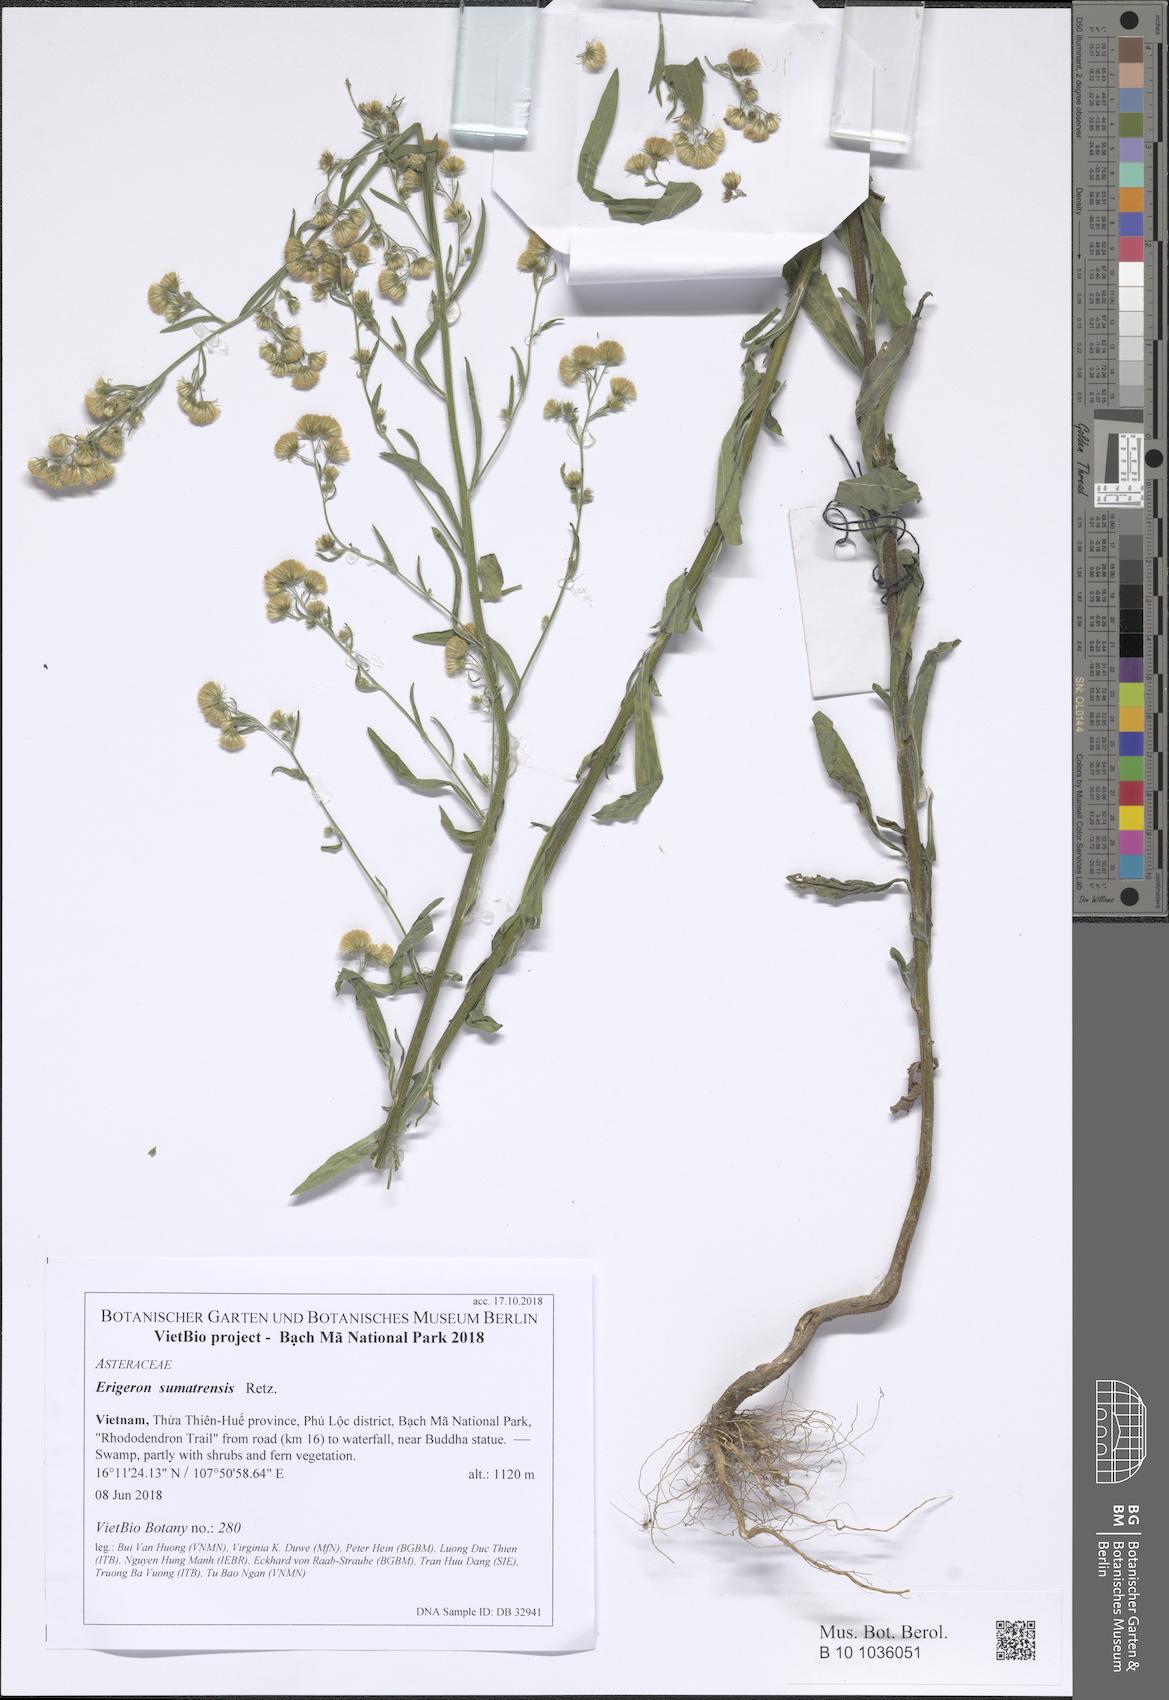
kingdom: Plantae
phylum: Tracheophyta
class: Magnoliopsida
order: Asterales
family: Asteraceae
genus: Erigeron
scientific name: Erigeron sumatrensis
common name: Daisy
